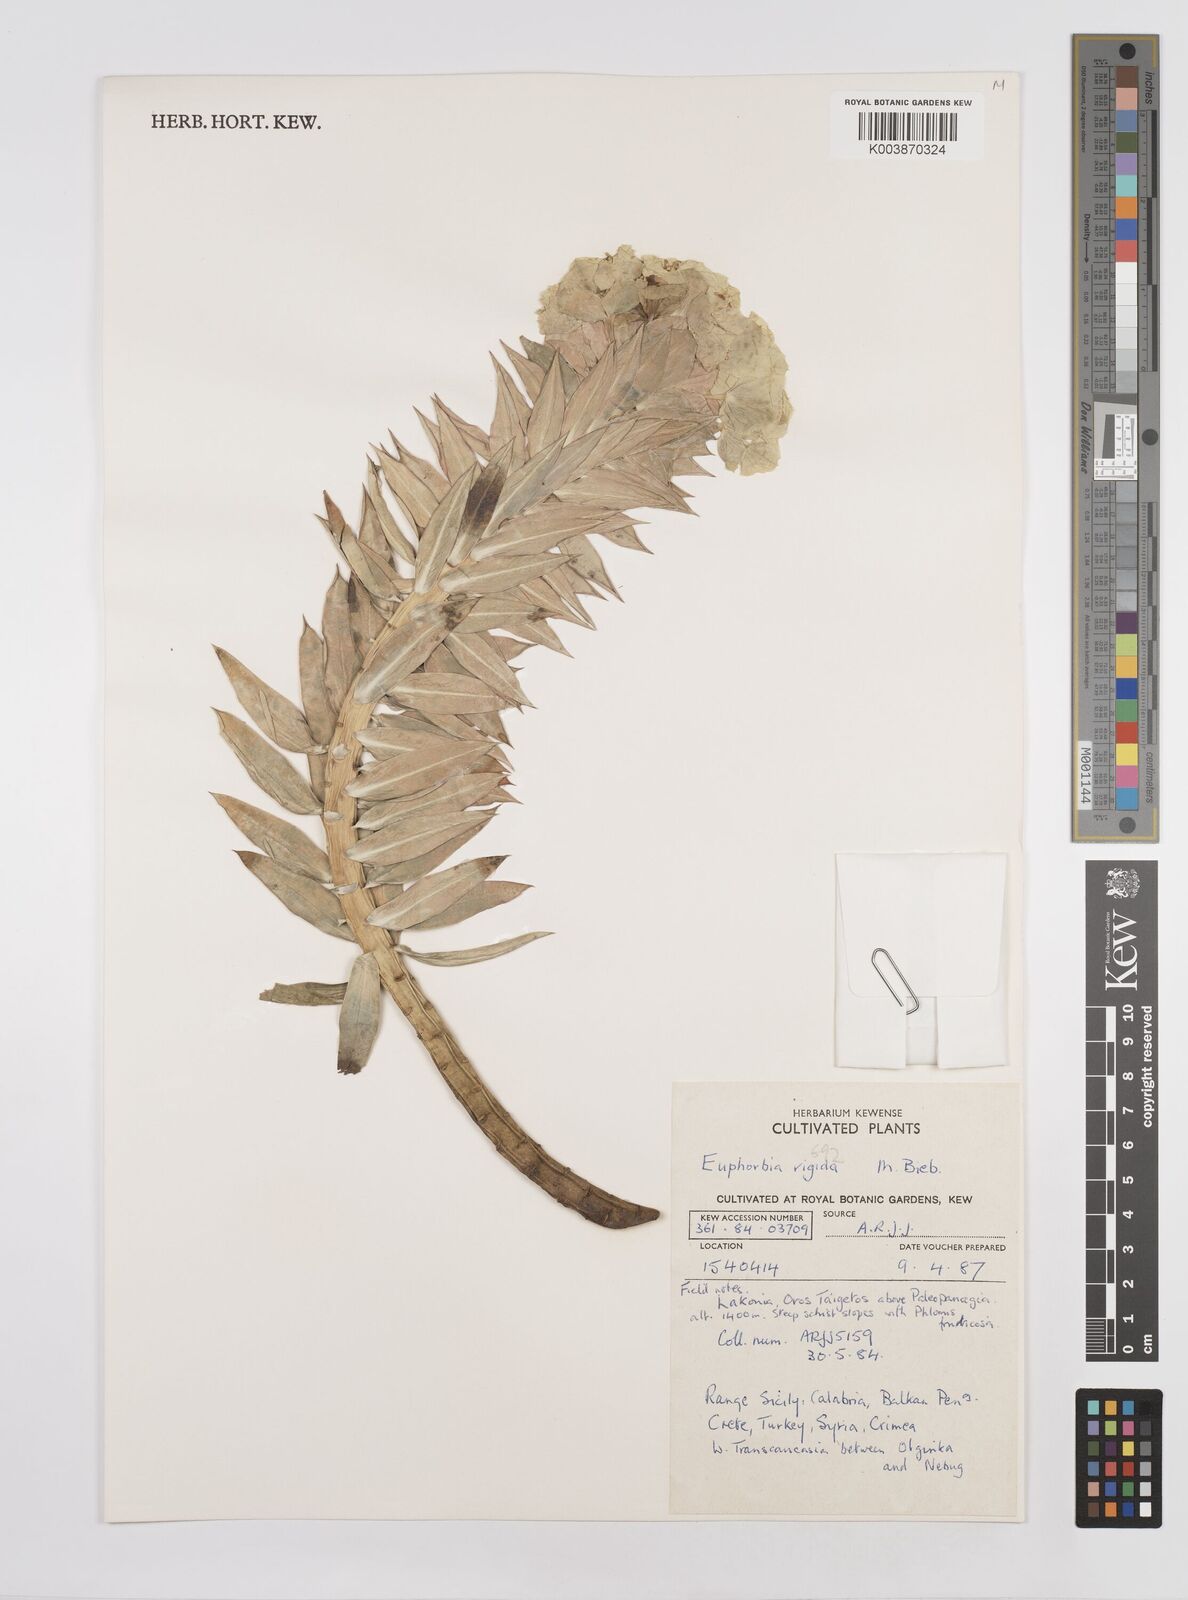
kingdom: Plantae
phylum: Tracheophyta
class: Magnoliopsida
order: Malpighiales
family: Euphorbiaceae
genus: Euphorbia
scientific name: Euphorbia myrsinites
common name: Myrtle spurge
